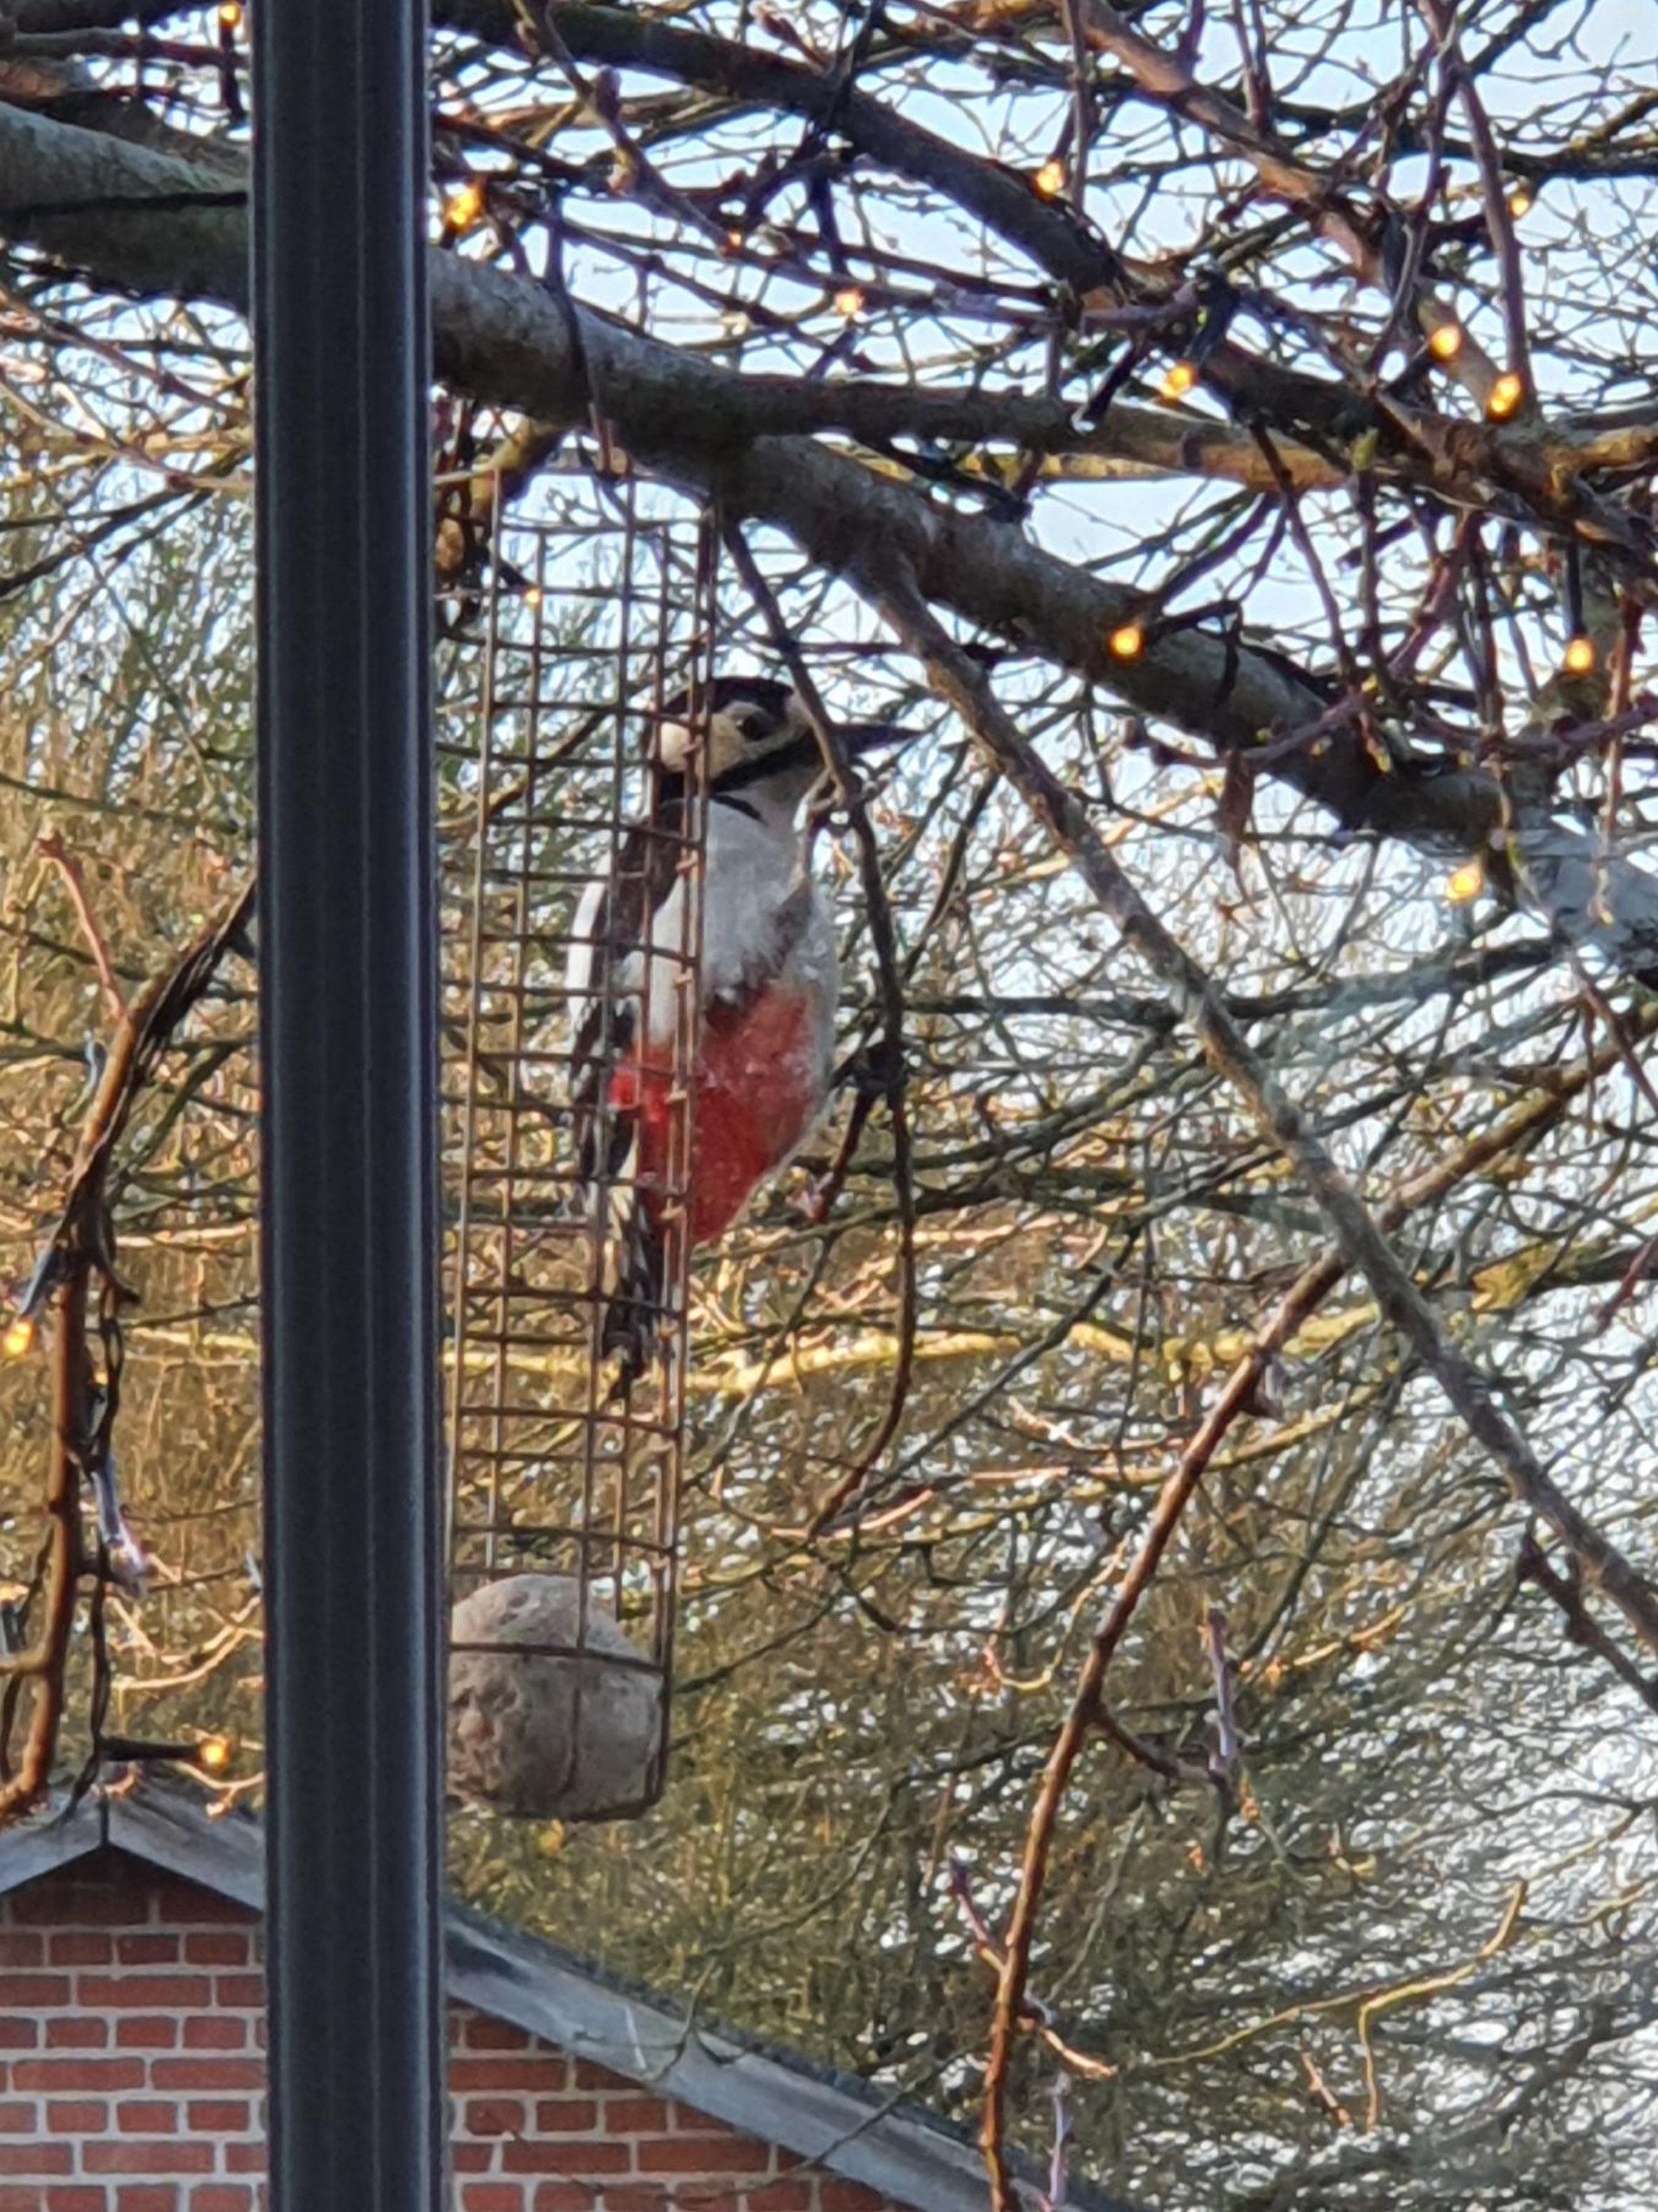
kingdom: Animalia
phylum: Chordata
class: Aves
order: Piciformes
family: Picidae
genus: Dendrocopos
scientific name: Dendrocopos major
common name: Stor flagspætte
